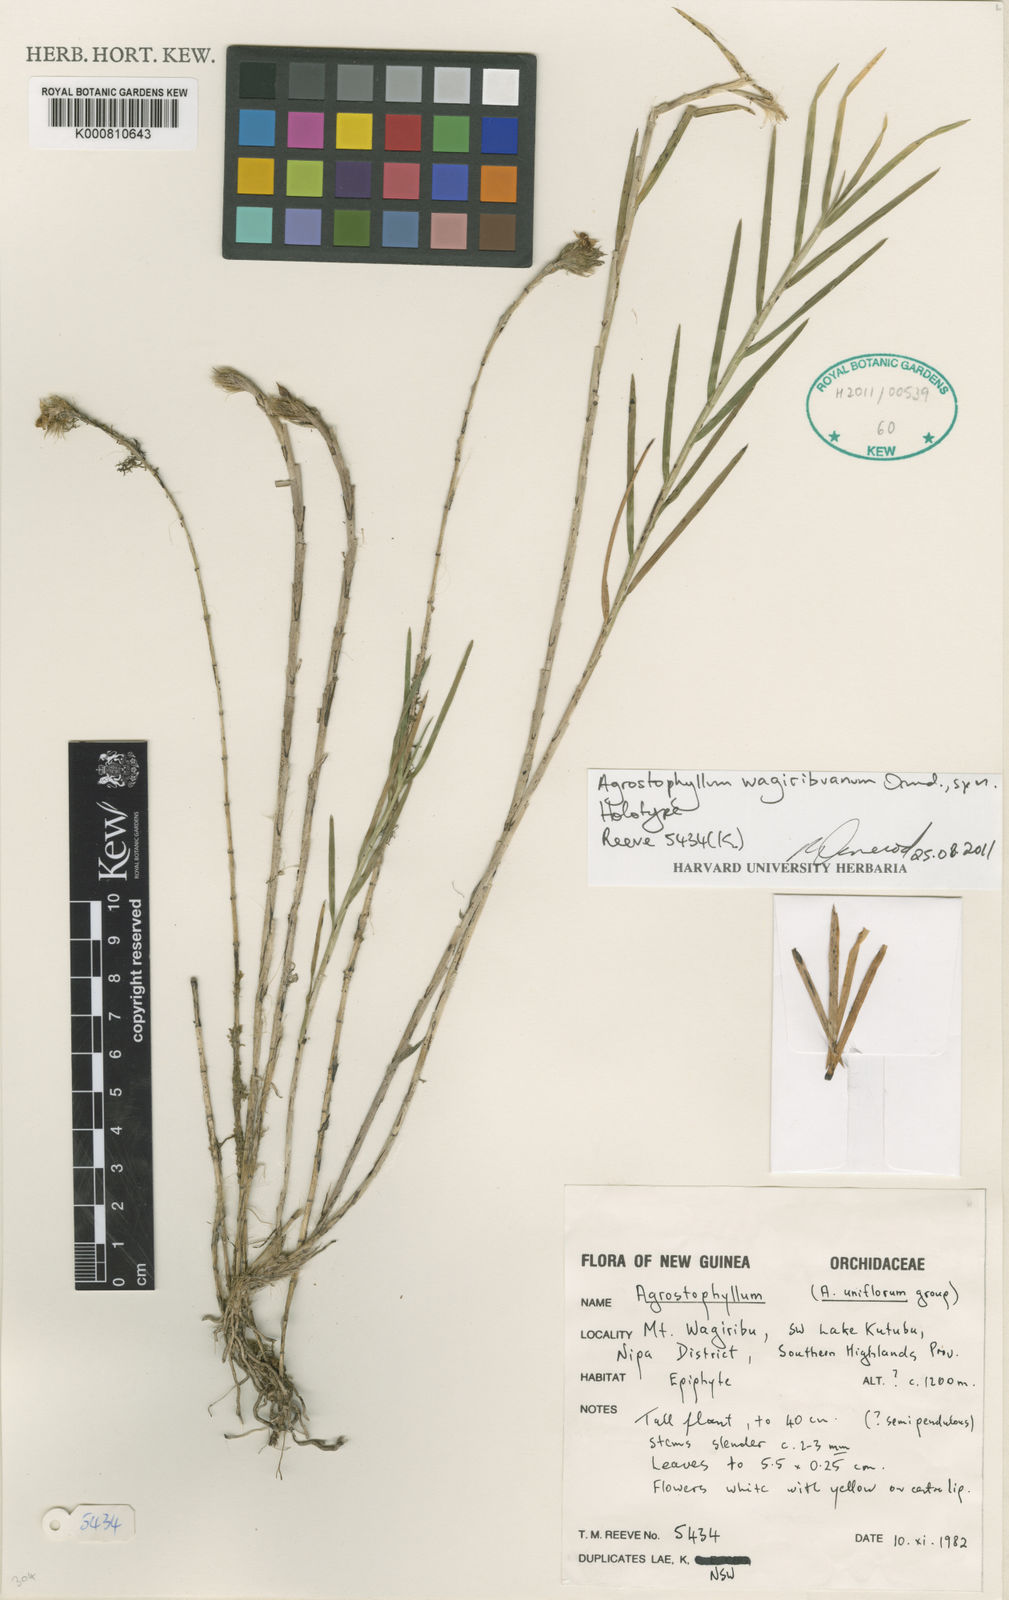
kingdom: Plantae
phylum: Tracheophyta
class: Liliopsida
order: Asparagales
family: Orchidaceae
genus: Agrostophyllum
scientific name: Agrostophyllum wagiribuanum
